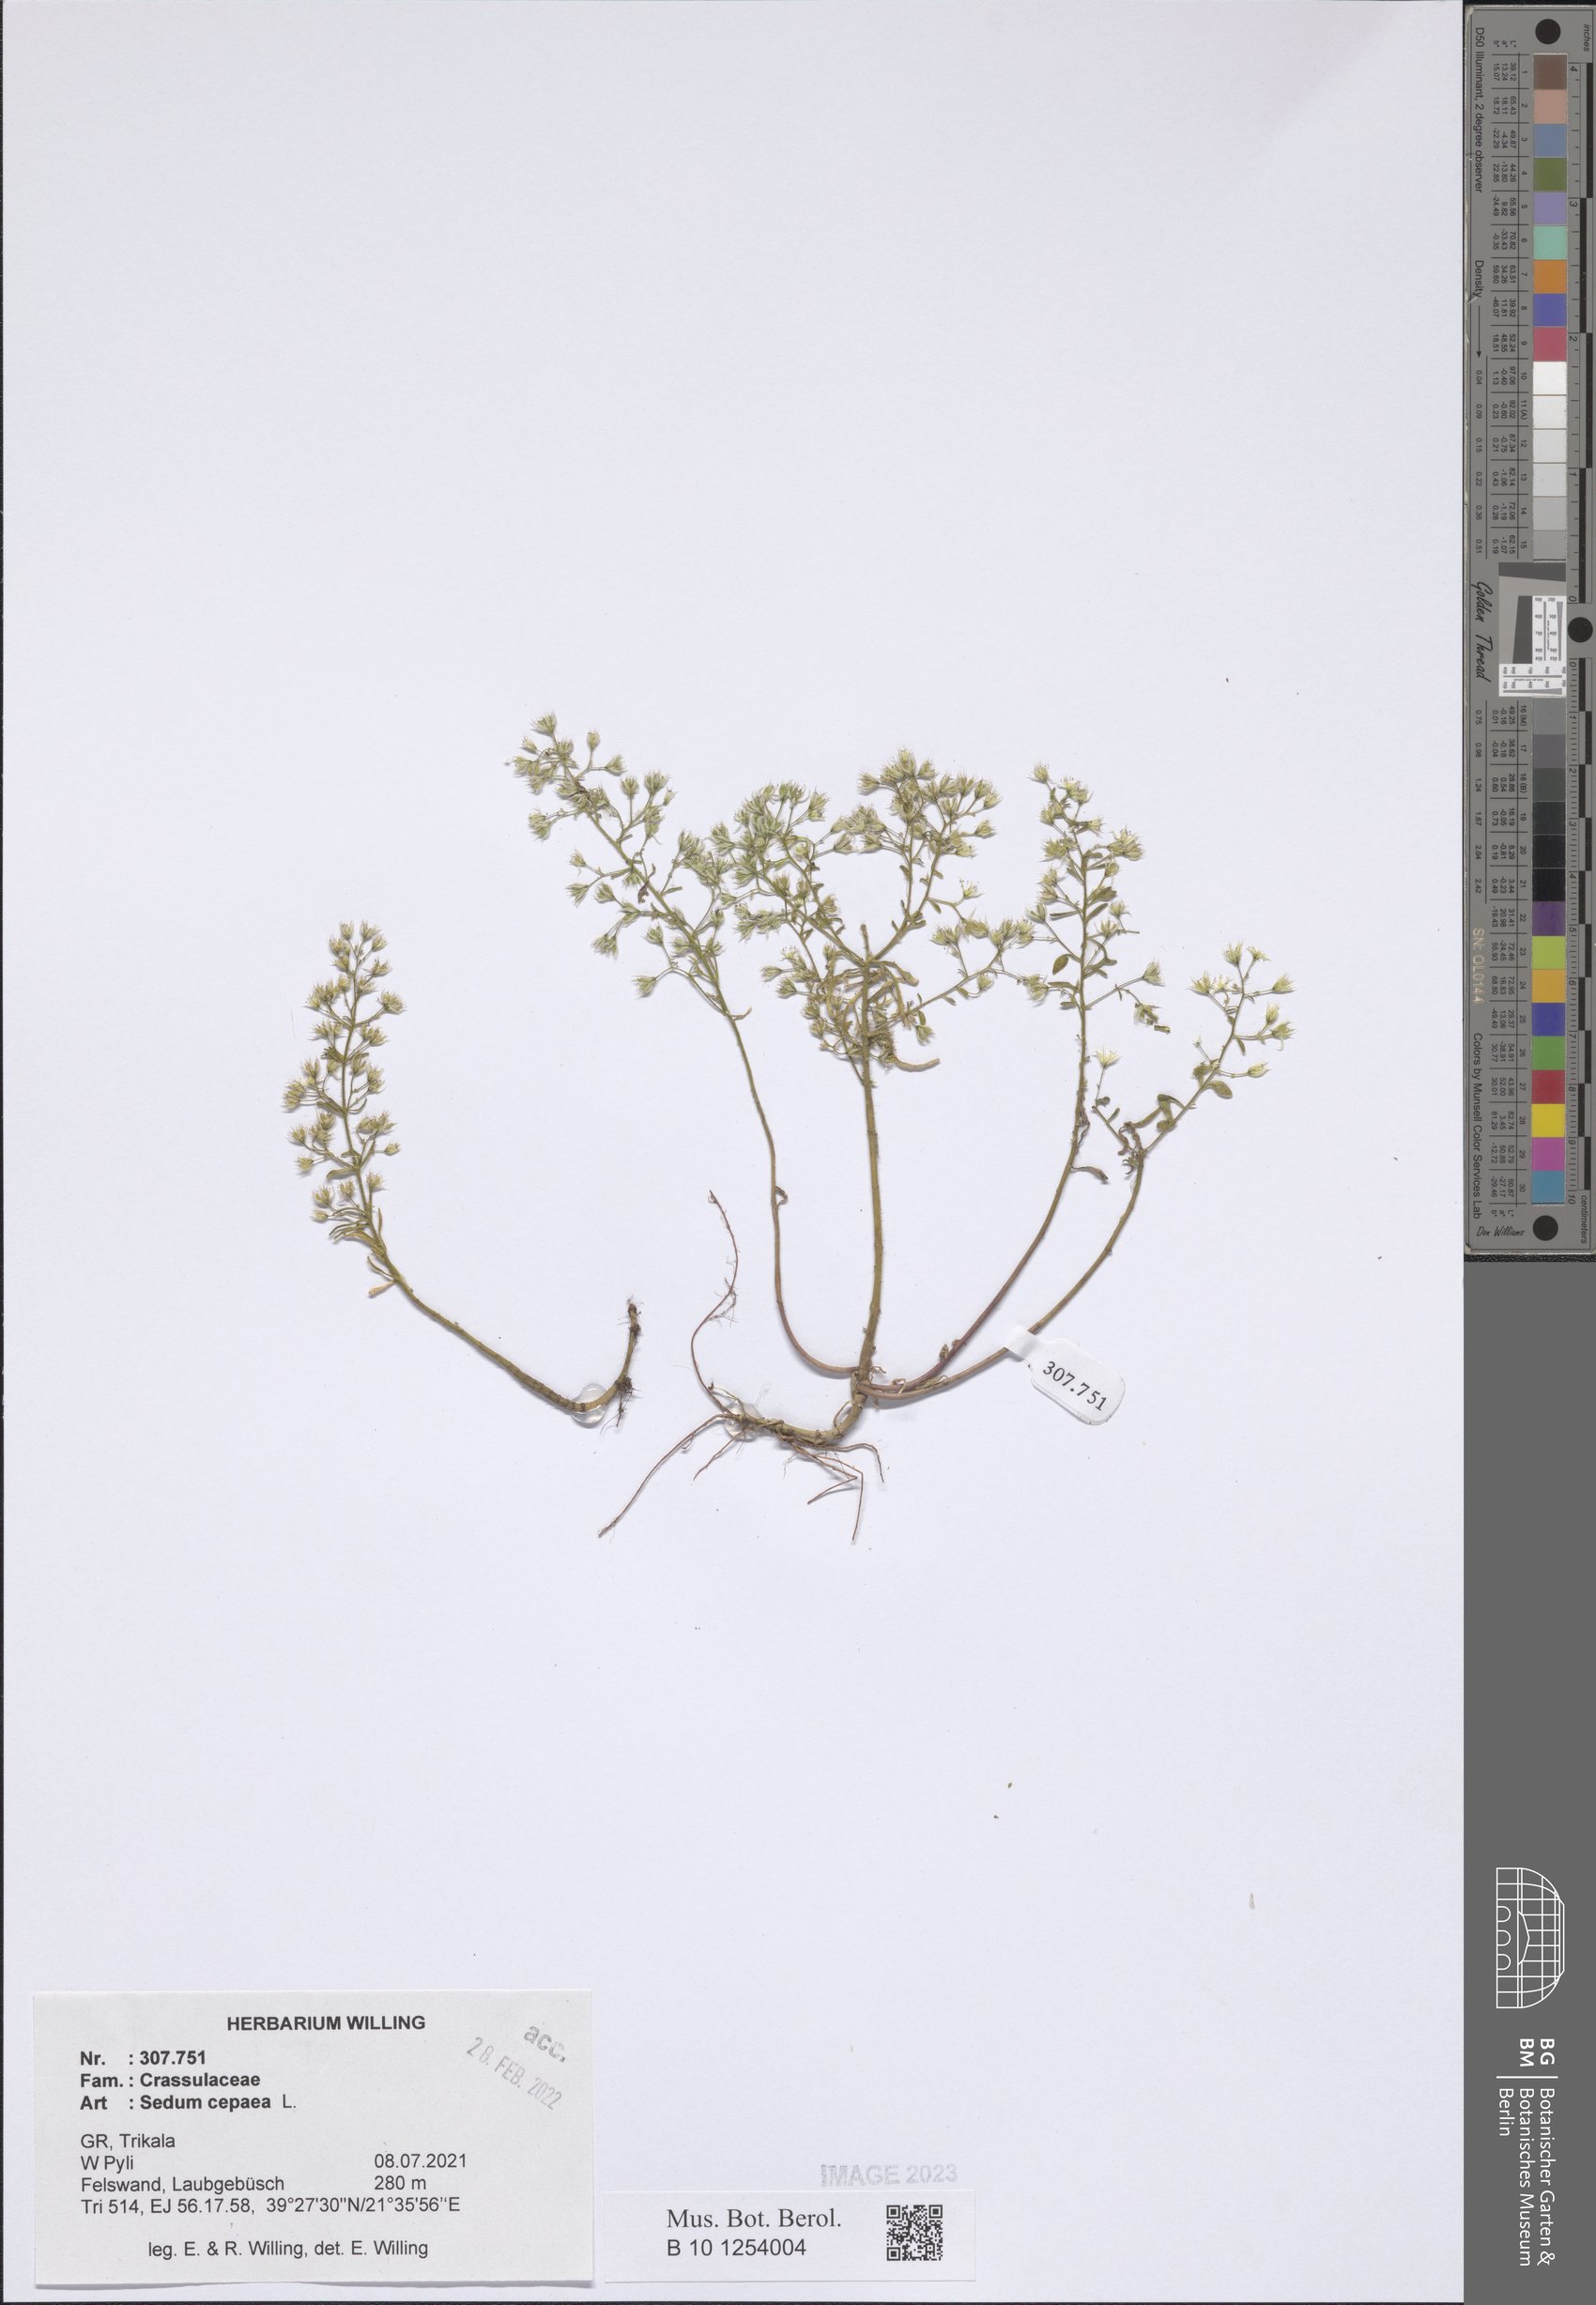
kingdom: Plantae
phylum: Tracheophyta
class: Magnoliopsida
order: Saxifragales
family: Crassulaceae
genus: Sedum
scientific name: Sedum cepaea
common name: Pink stonecrop
